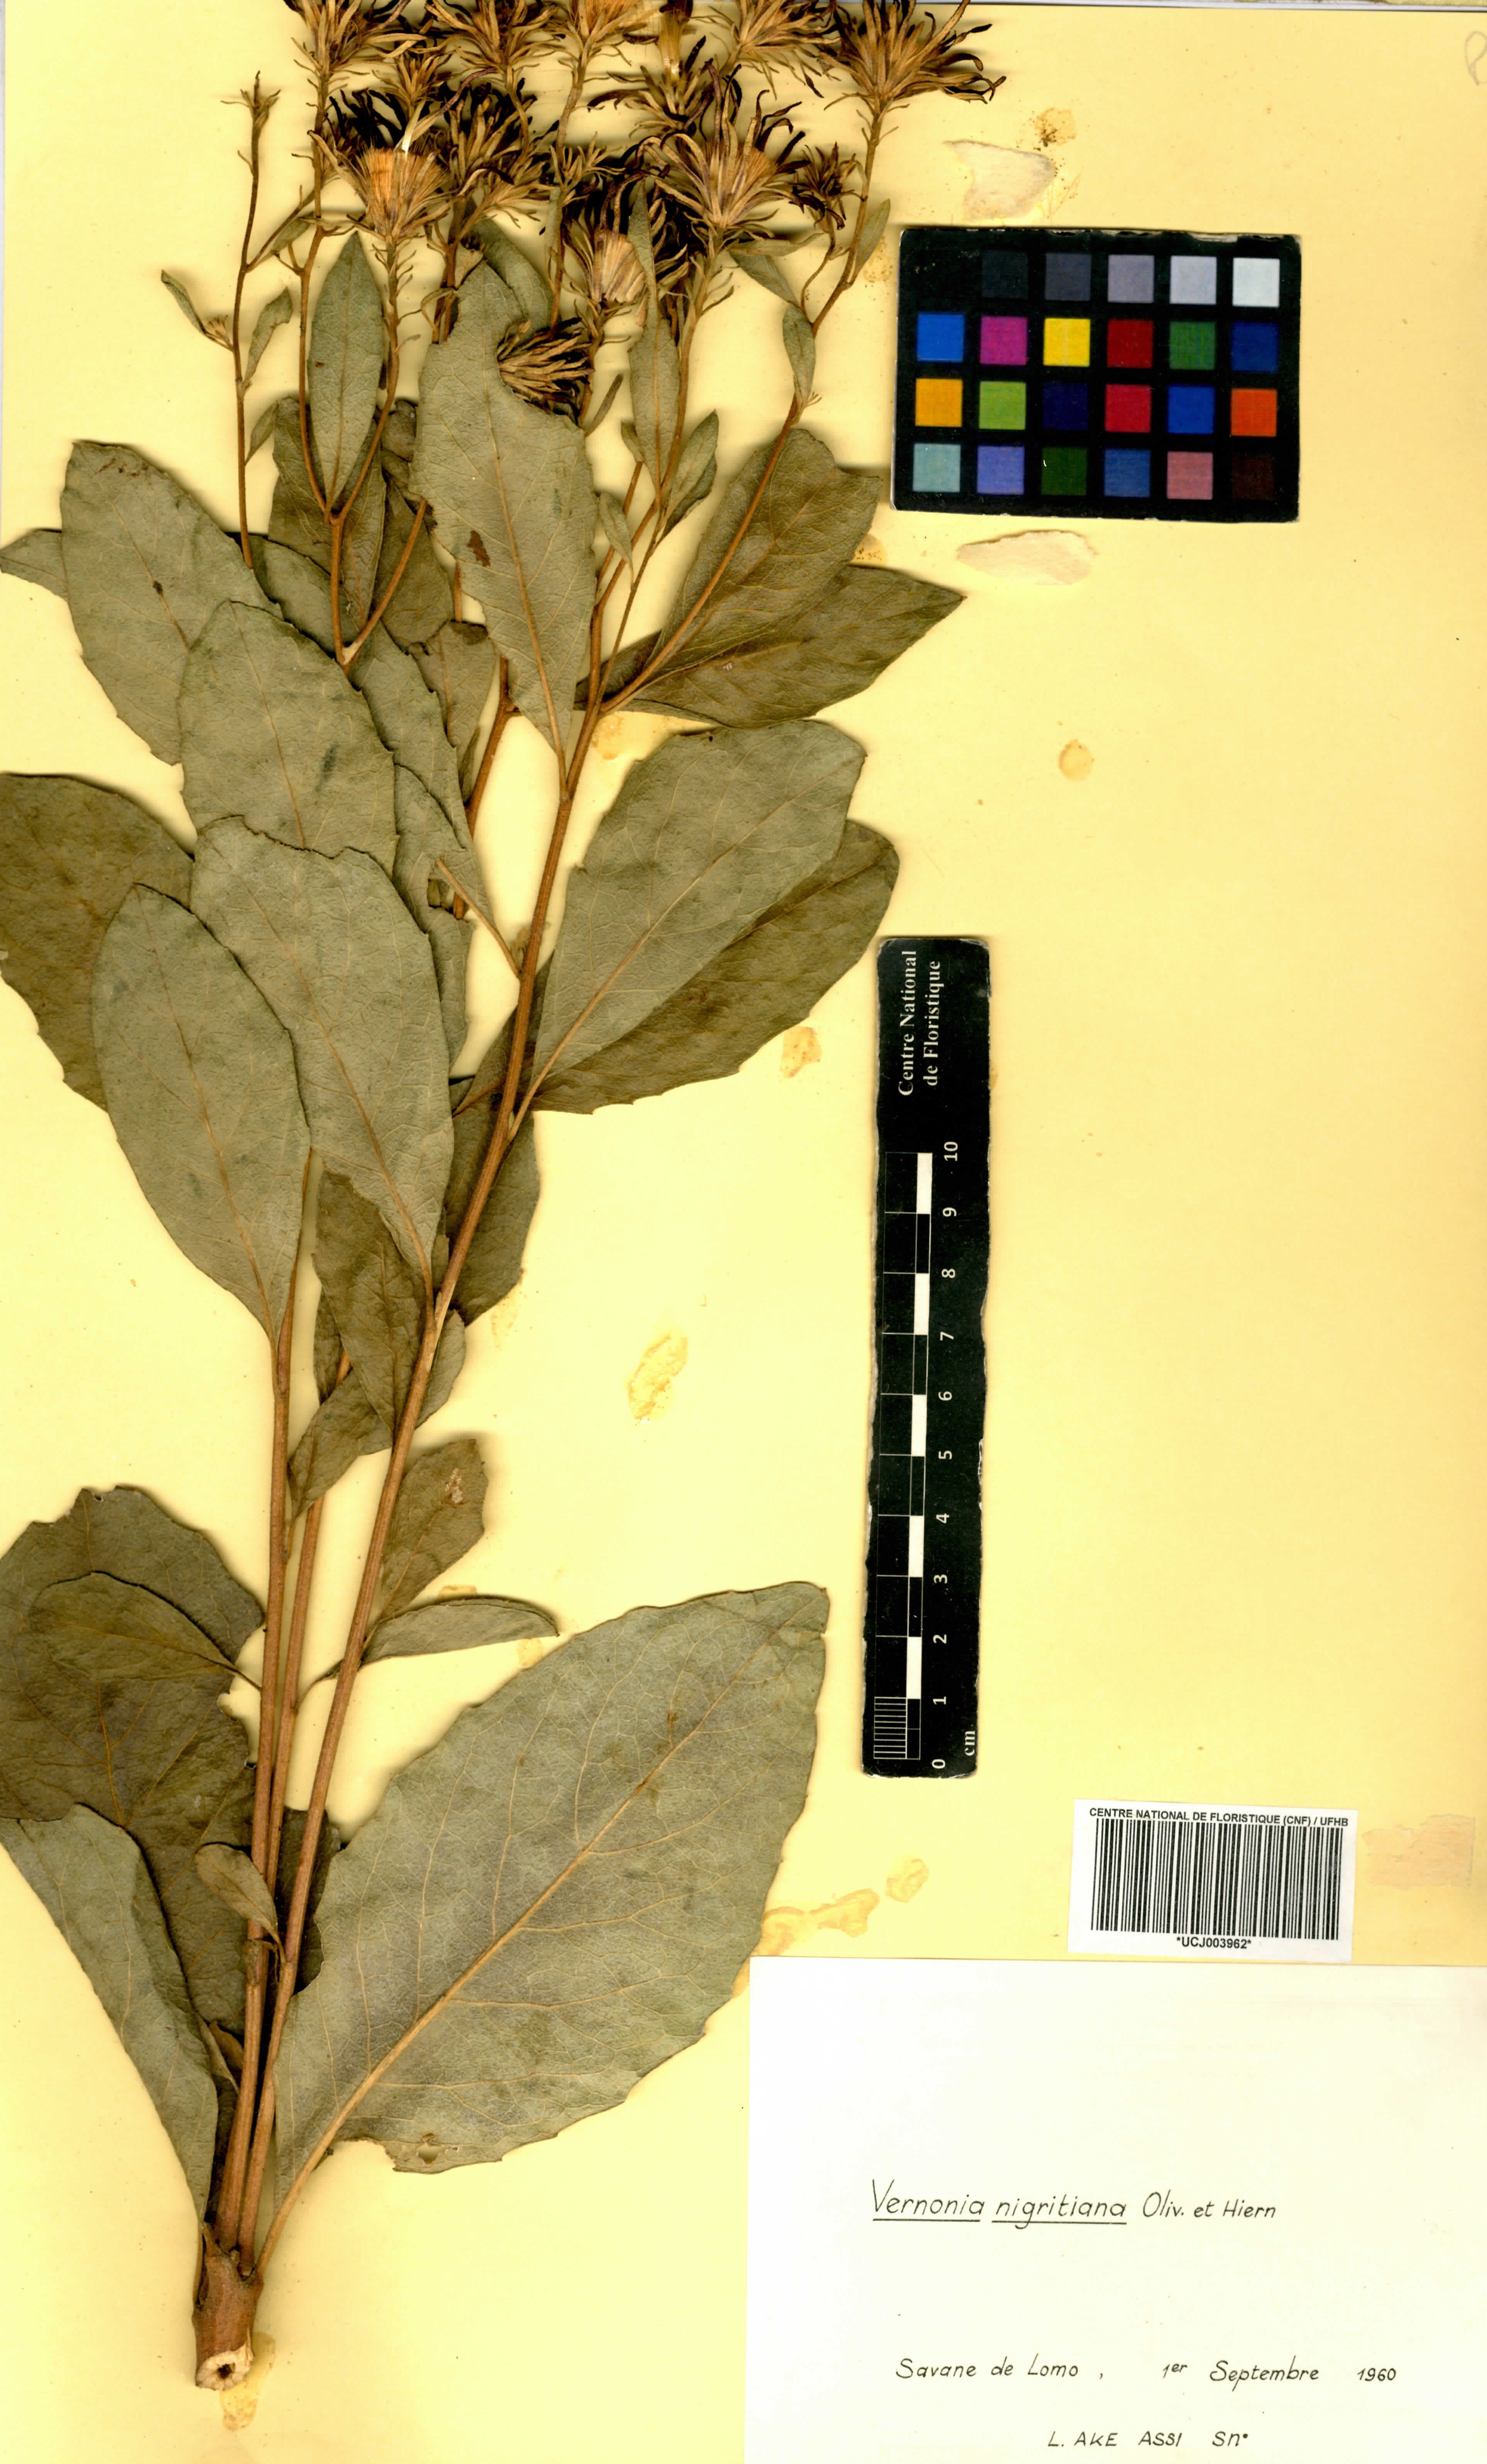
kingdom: Plantae
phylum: Tracheophyta
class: Magnoliopsida
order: Asterales
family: Asteraceae
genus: Linzia
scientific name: Linzia nigritiana
